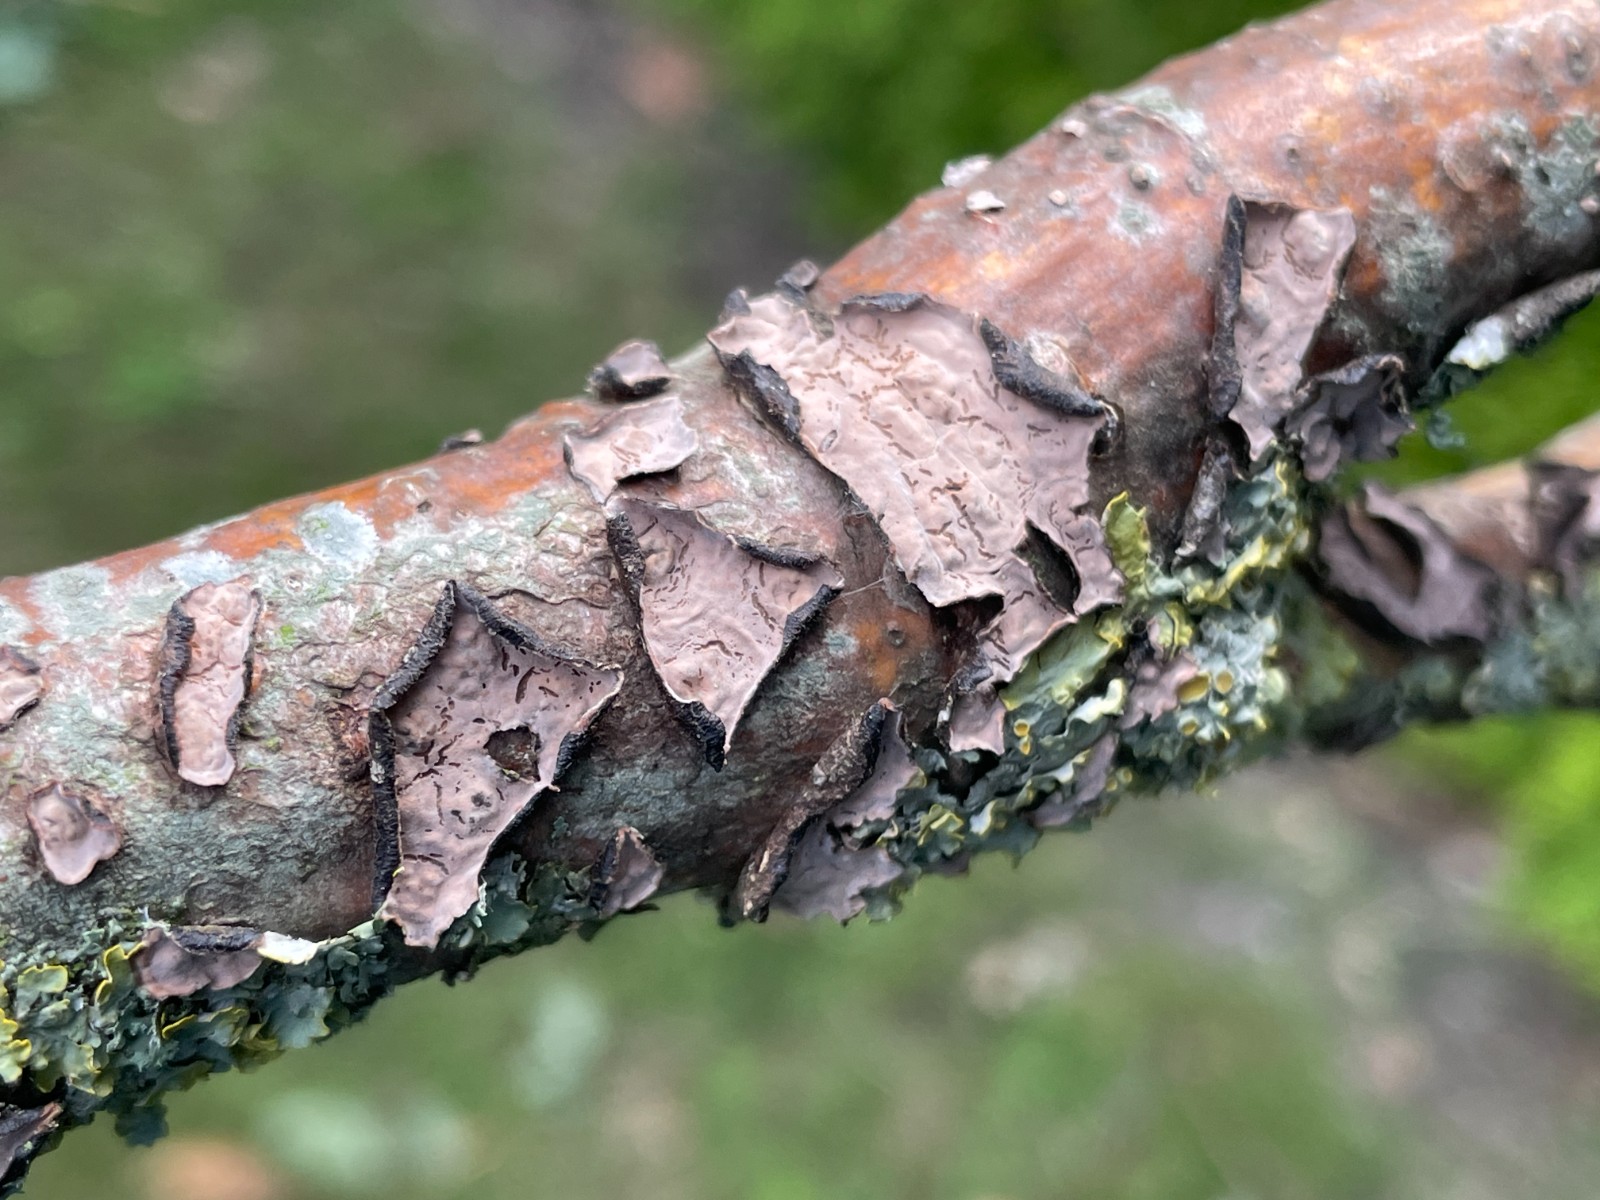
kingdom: Fungi
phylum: Basidiomycota
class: Agaricomycetes
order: Russulales
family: Peniophoraceae
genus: Peniophora
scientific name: Peniophora quercina
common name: ege-voksskind
